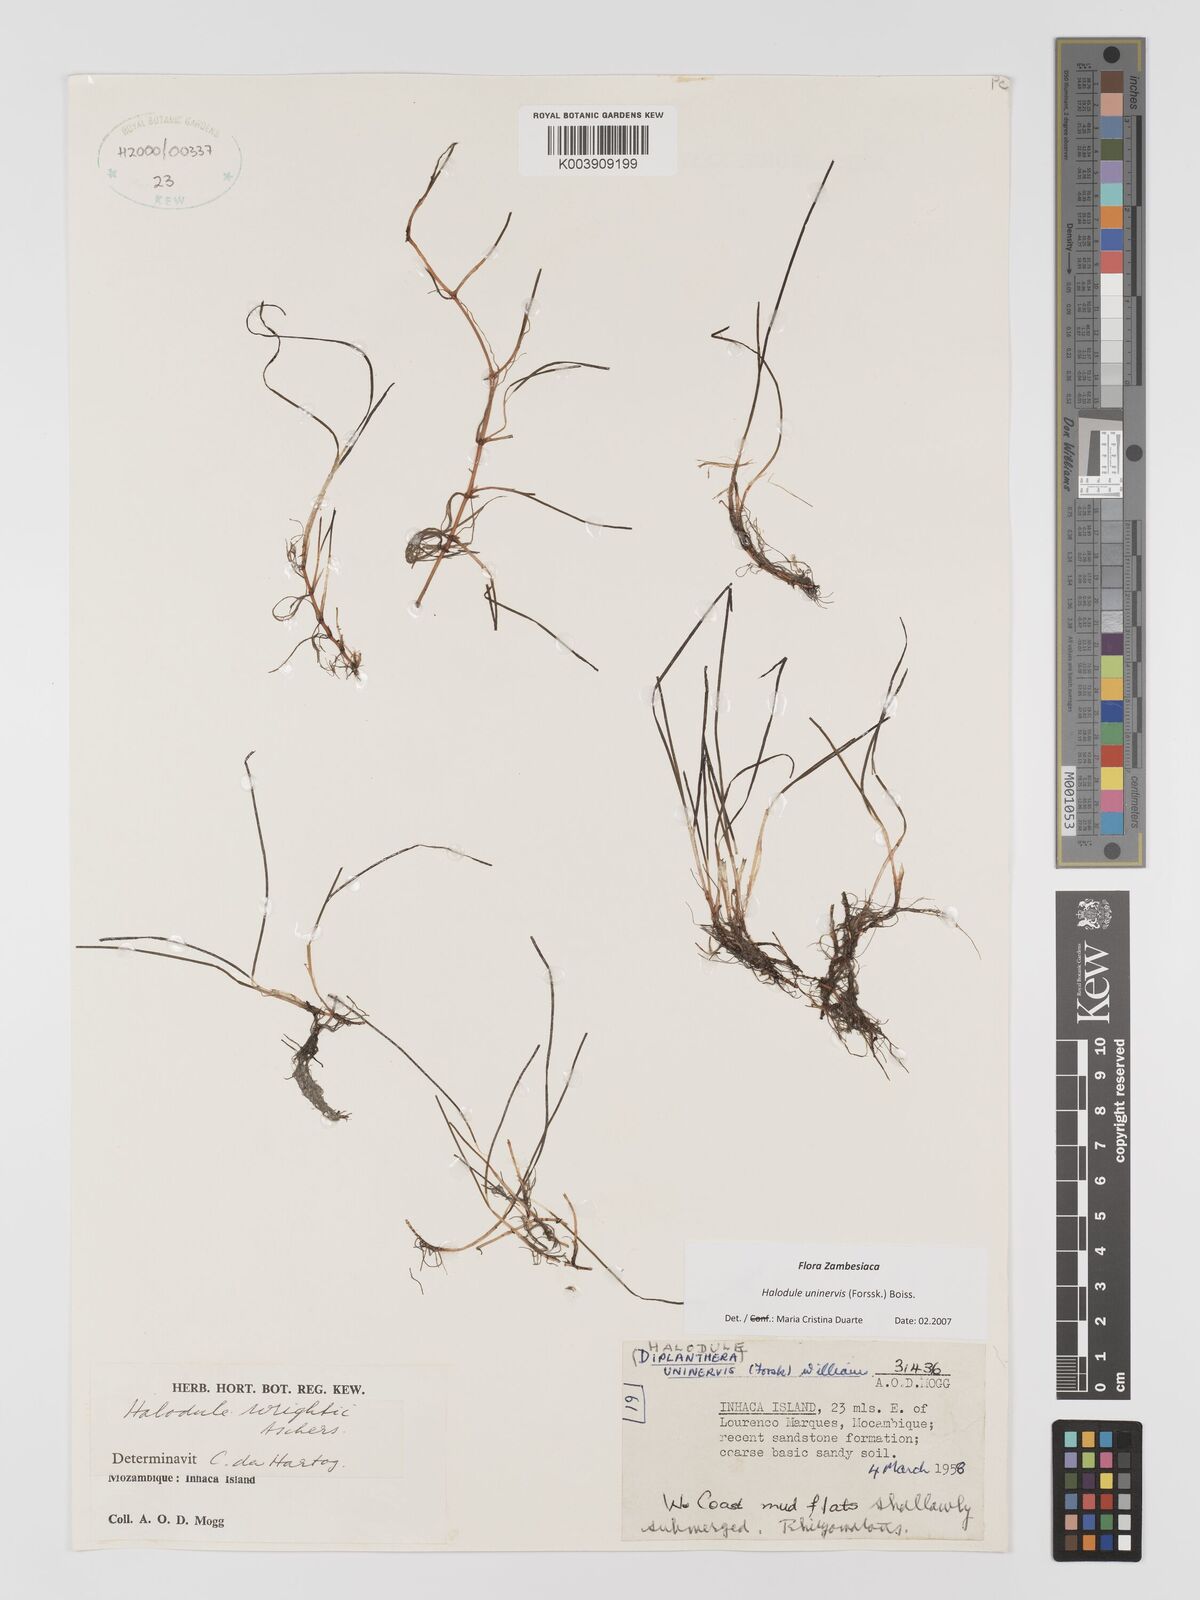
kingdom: Plantae
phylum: Tracheophyta
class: Liliopsida
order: Alismatales
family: Cymodoceaceae
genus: Halodule
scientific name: Halodule uninervis
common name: Narrowleaf seagrass
